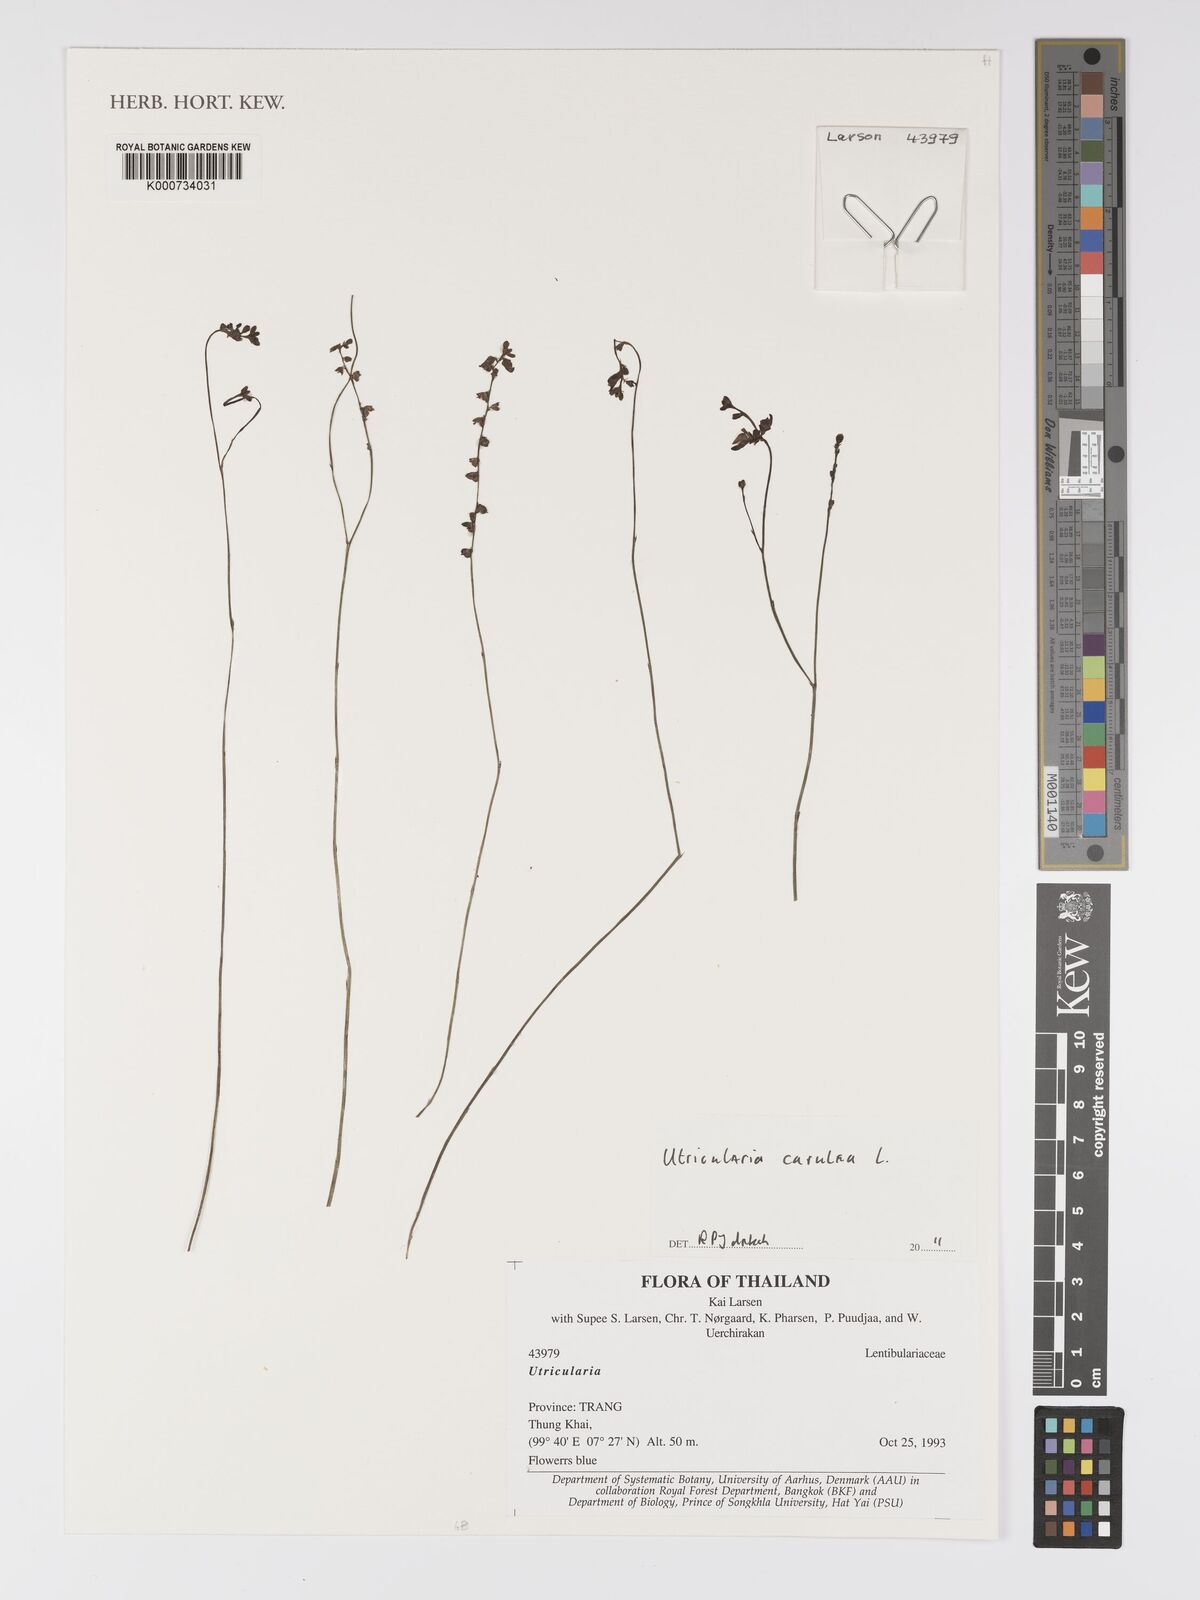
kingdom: Plantae
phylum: Tracheophyta
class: Magnoliopsida
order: Lamiales
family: Lentibulariaceae
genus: Utricularia
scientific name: Utricularia caerulea
